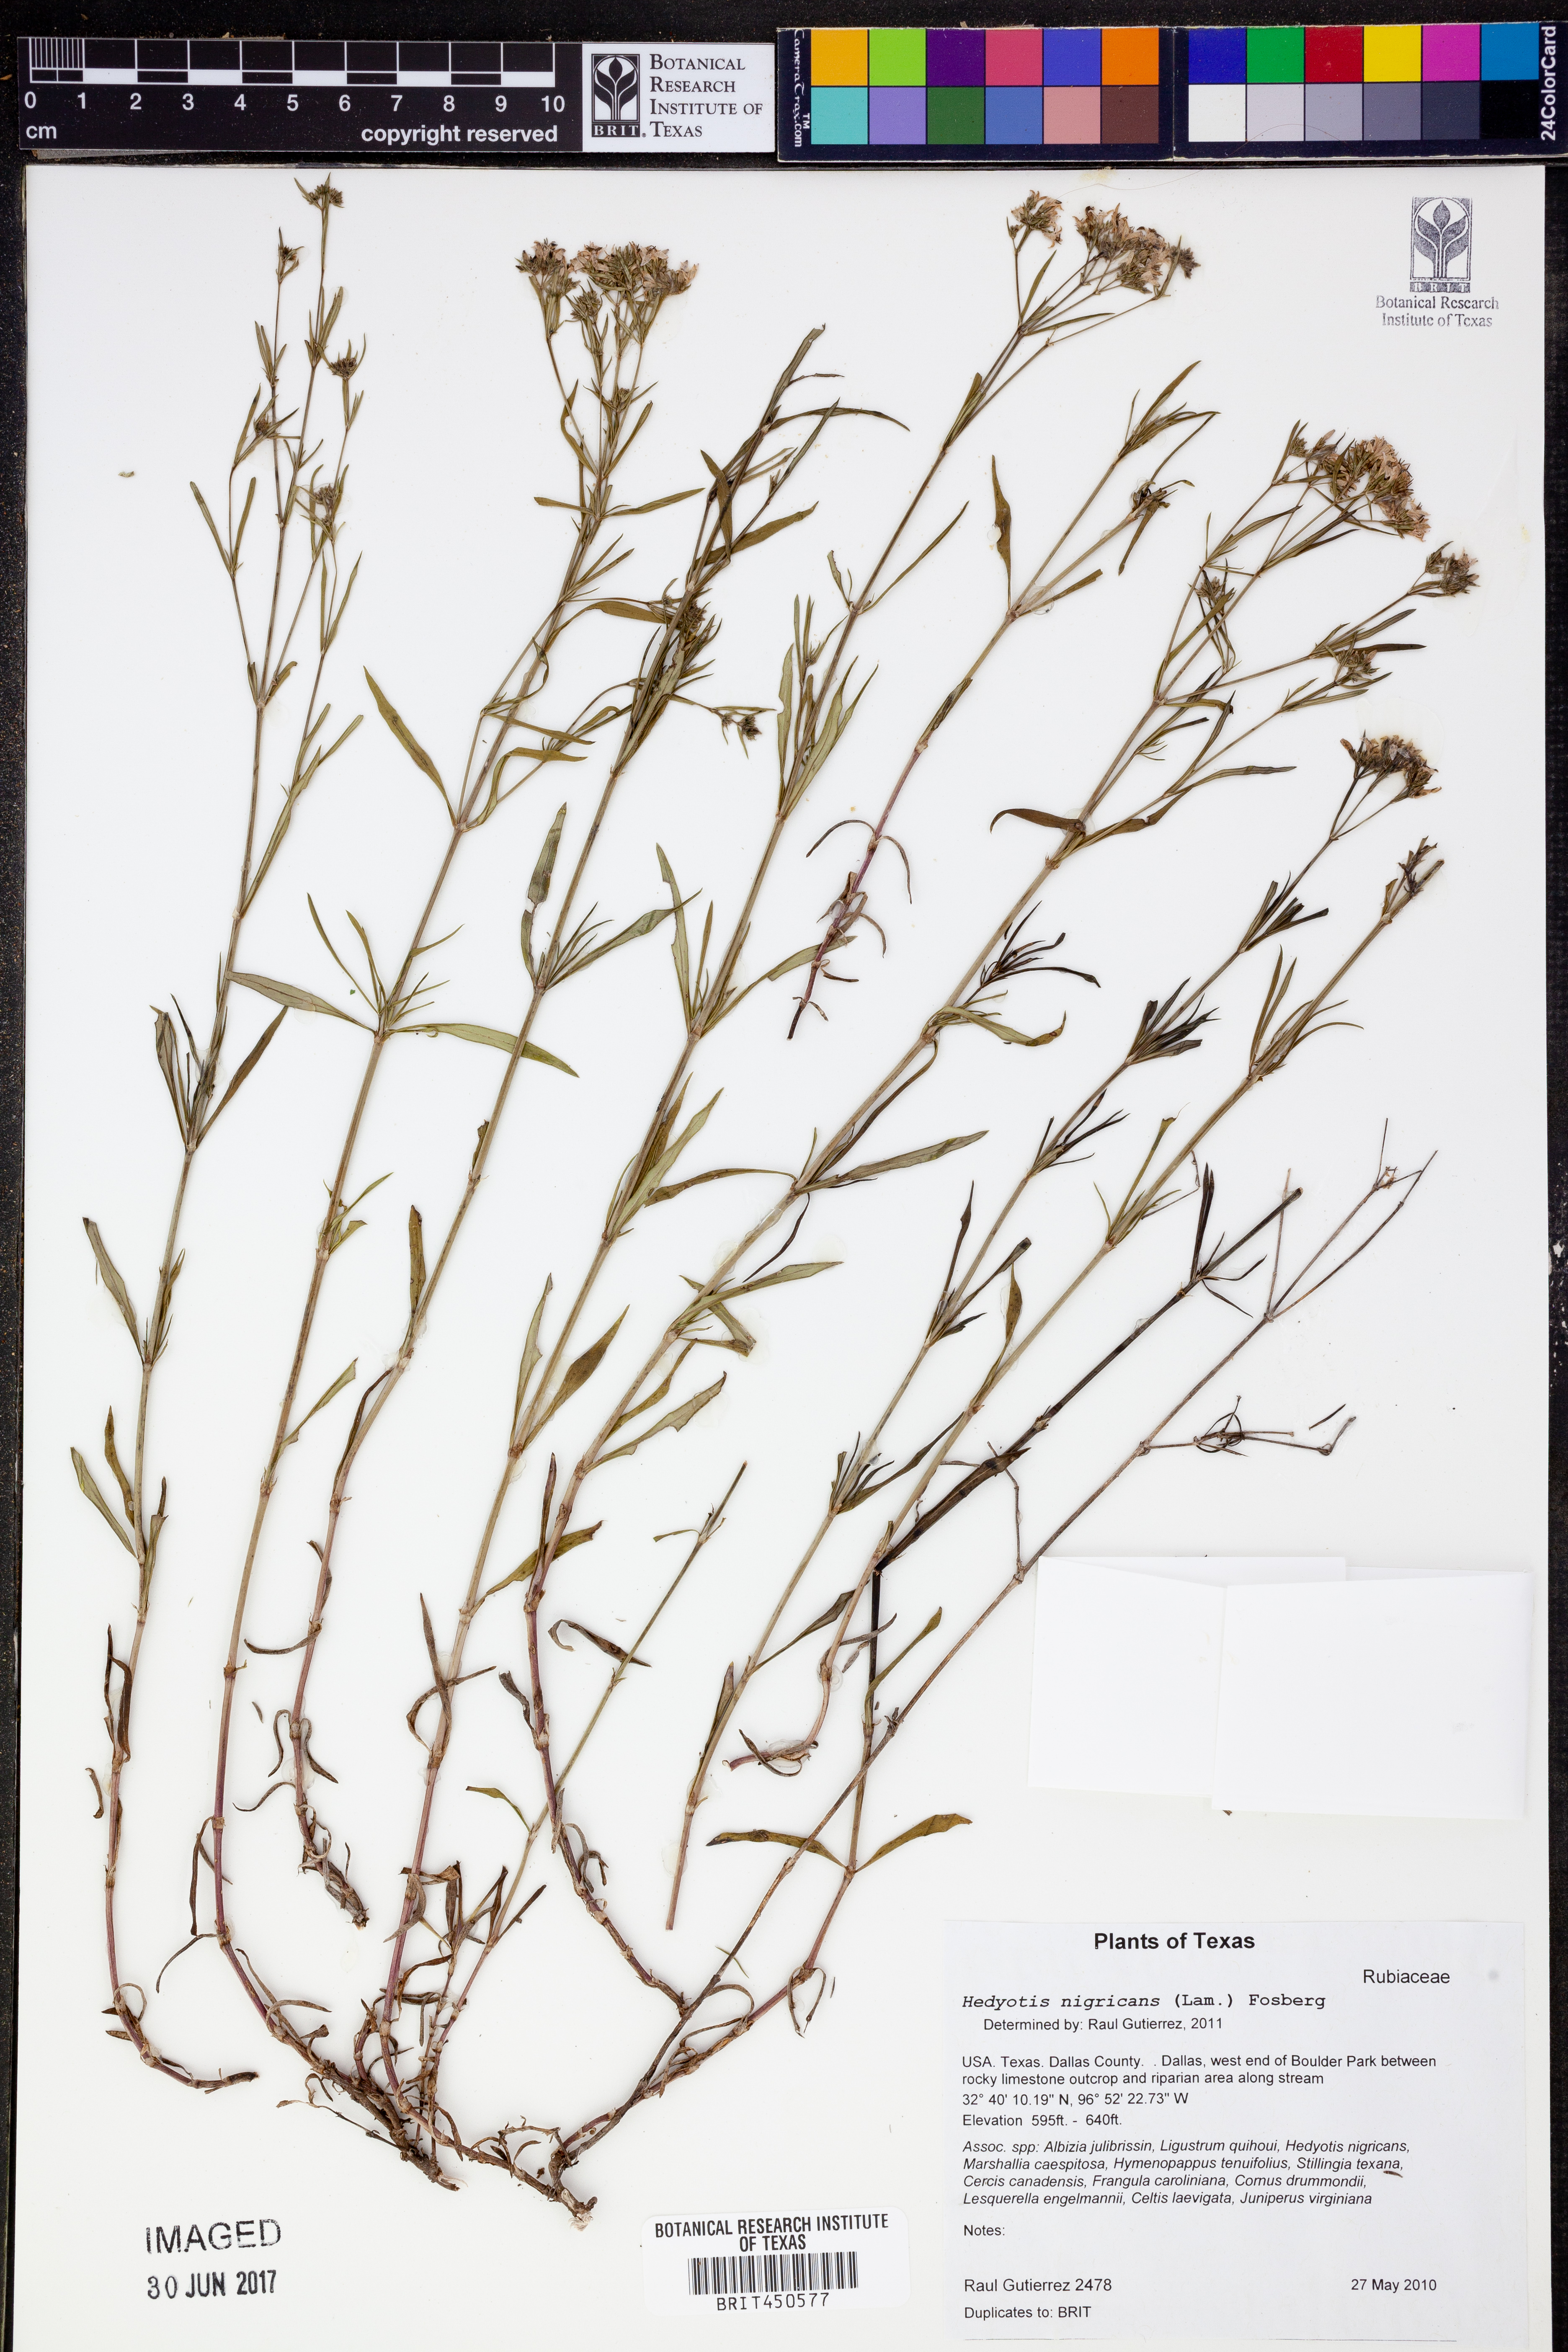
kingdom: Plantae
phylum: Tracheophyta
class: Magnoliopsida
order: Gentianales
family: Rubiaceae
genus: Stenaria
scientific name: Stenaria nigricans
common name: Diamondflowers
